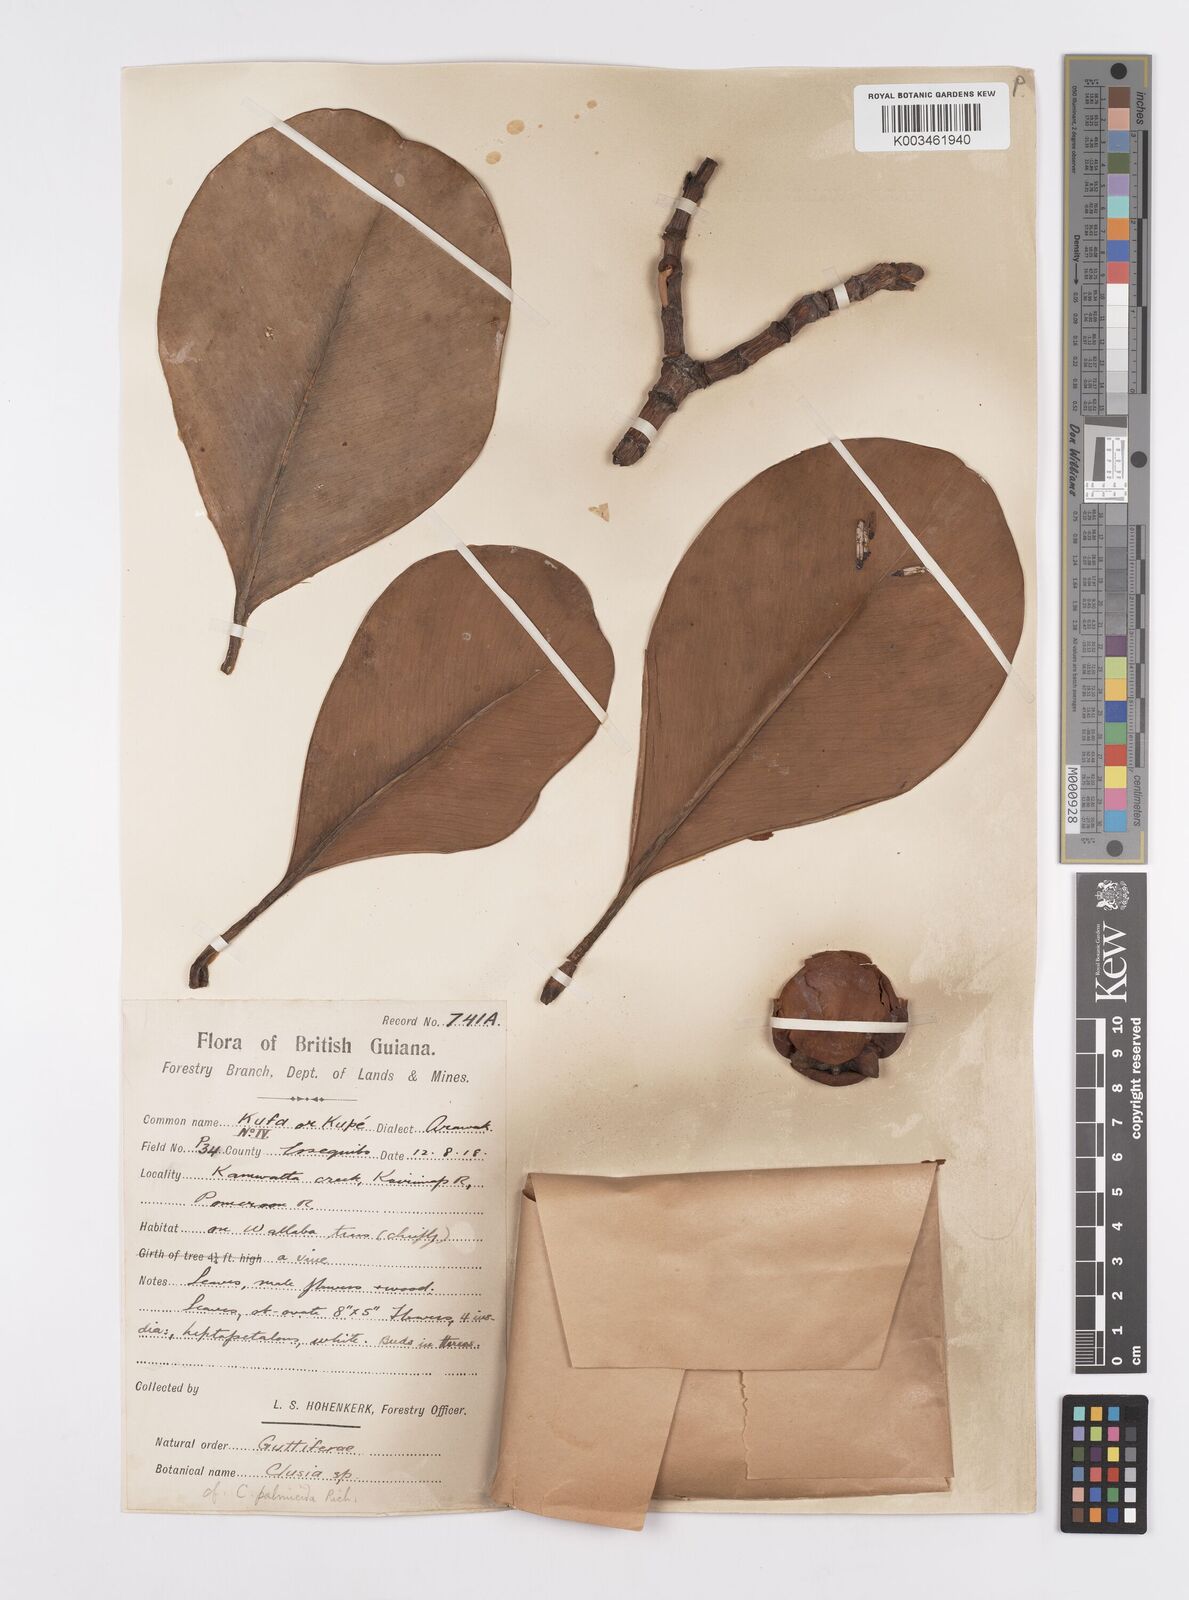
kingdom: Plantae
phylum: Tracheophyta
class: Magnoliopsida
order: Malpighiales
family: Clusiaceae
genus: Clusia
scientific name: Clusia palmicida
